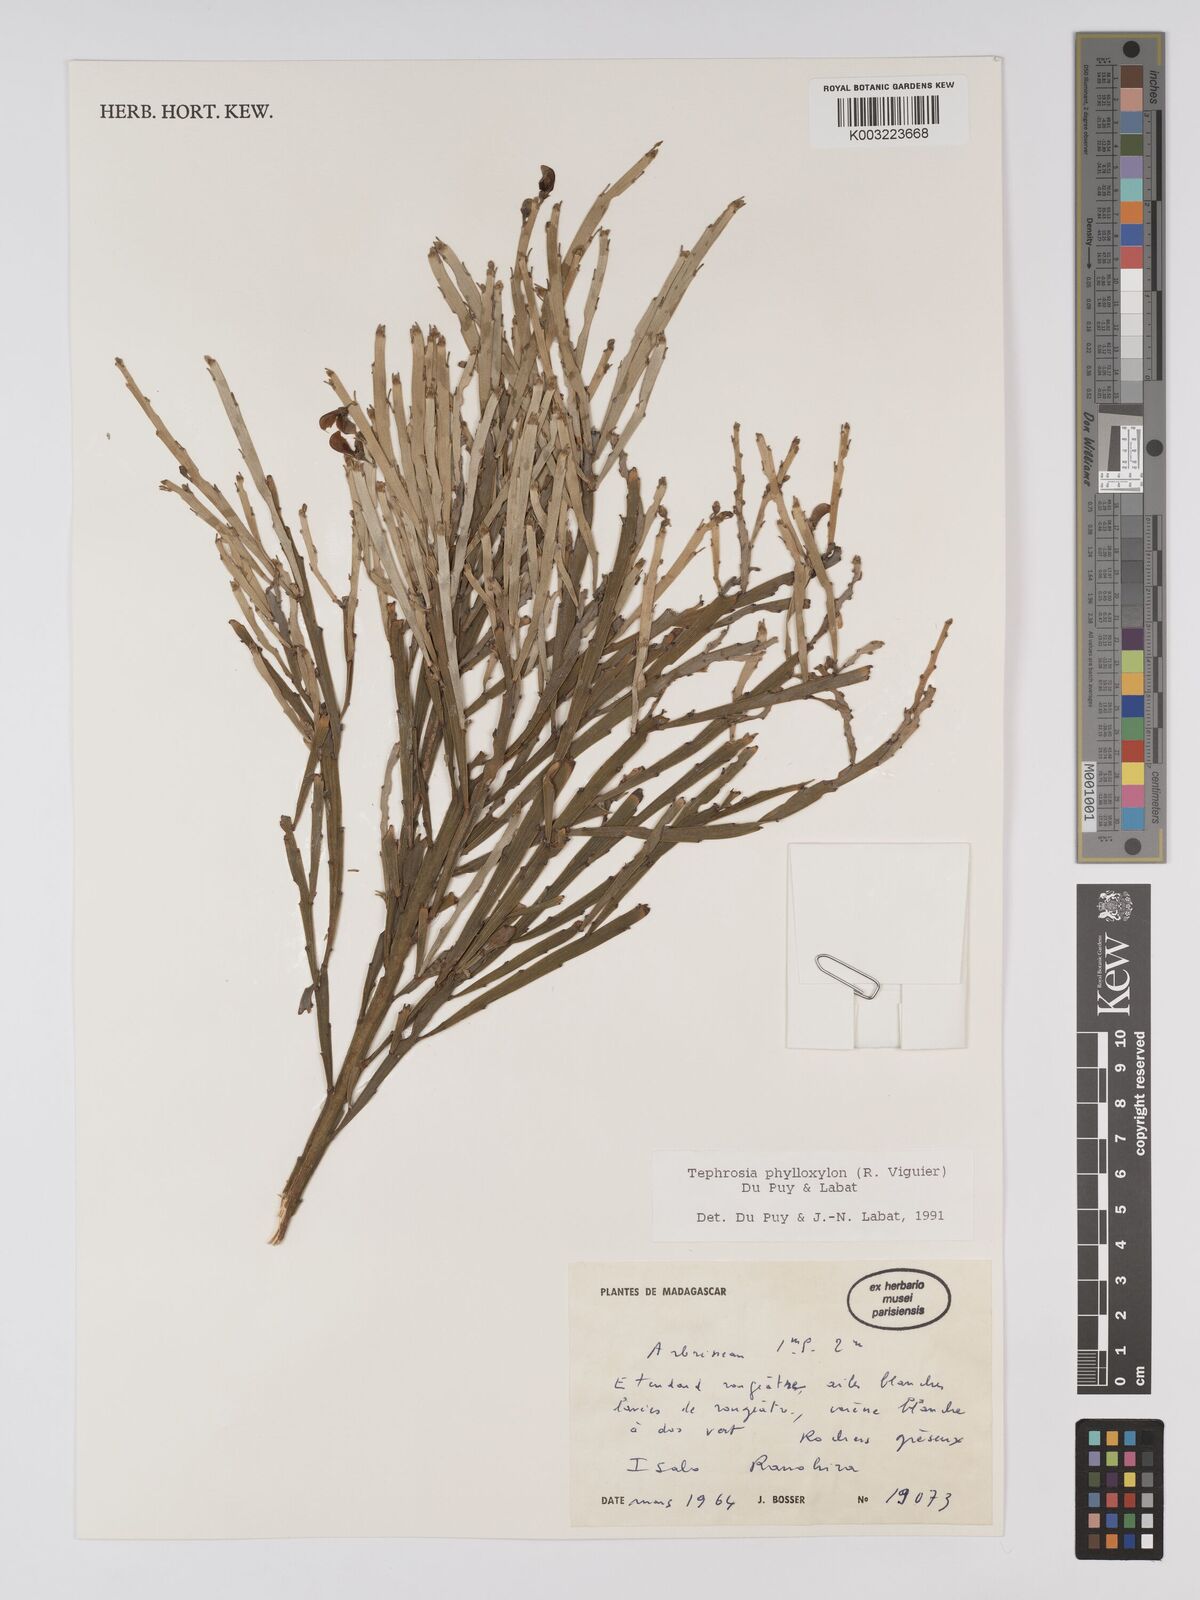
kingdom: Plantae
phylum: Tracheophyta
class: Magnoliopsida
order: Fabales
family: Fabaceae
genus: Tephrosia
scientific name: Tephrosia phylloxylon
